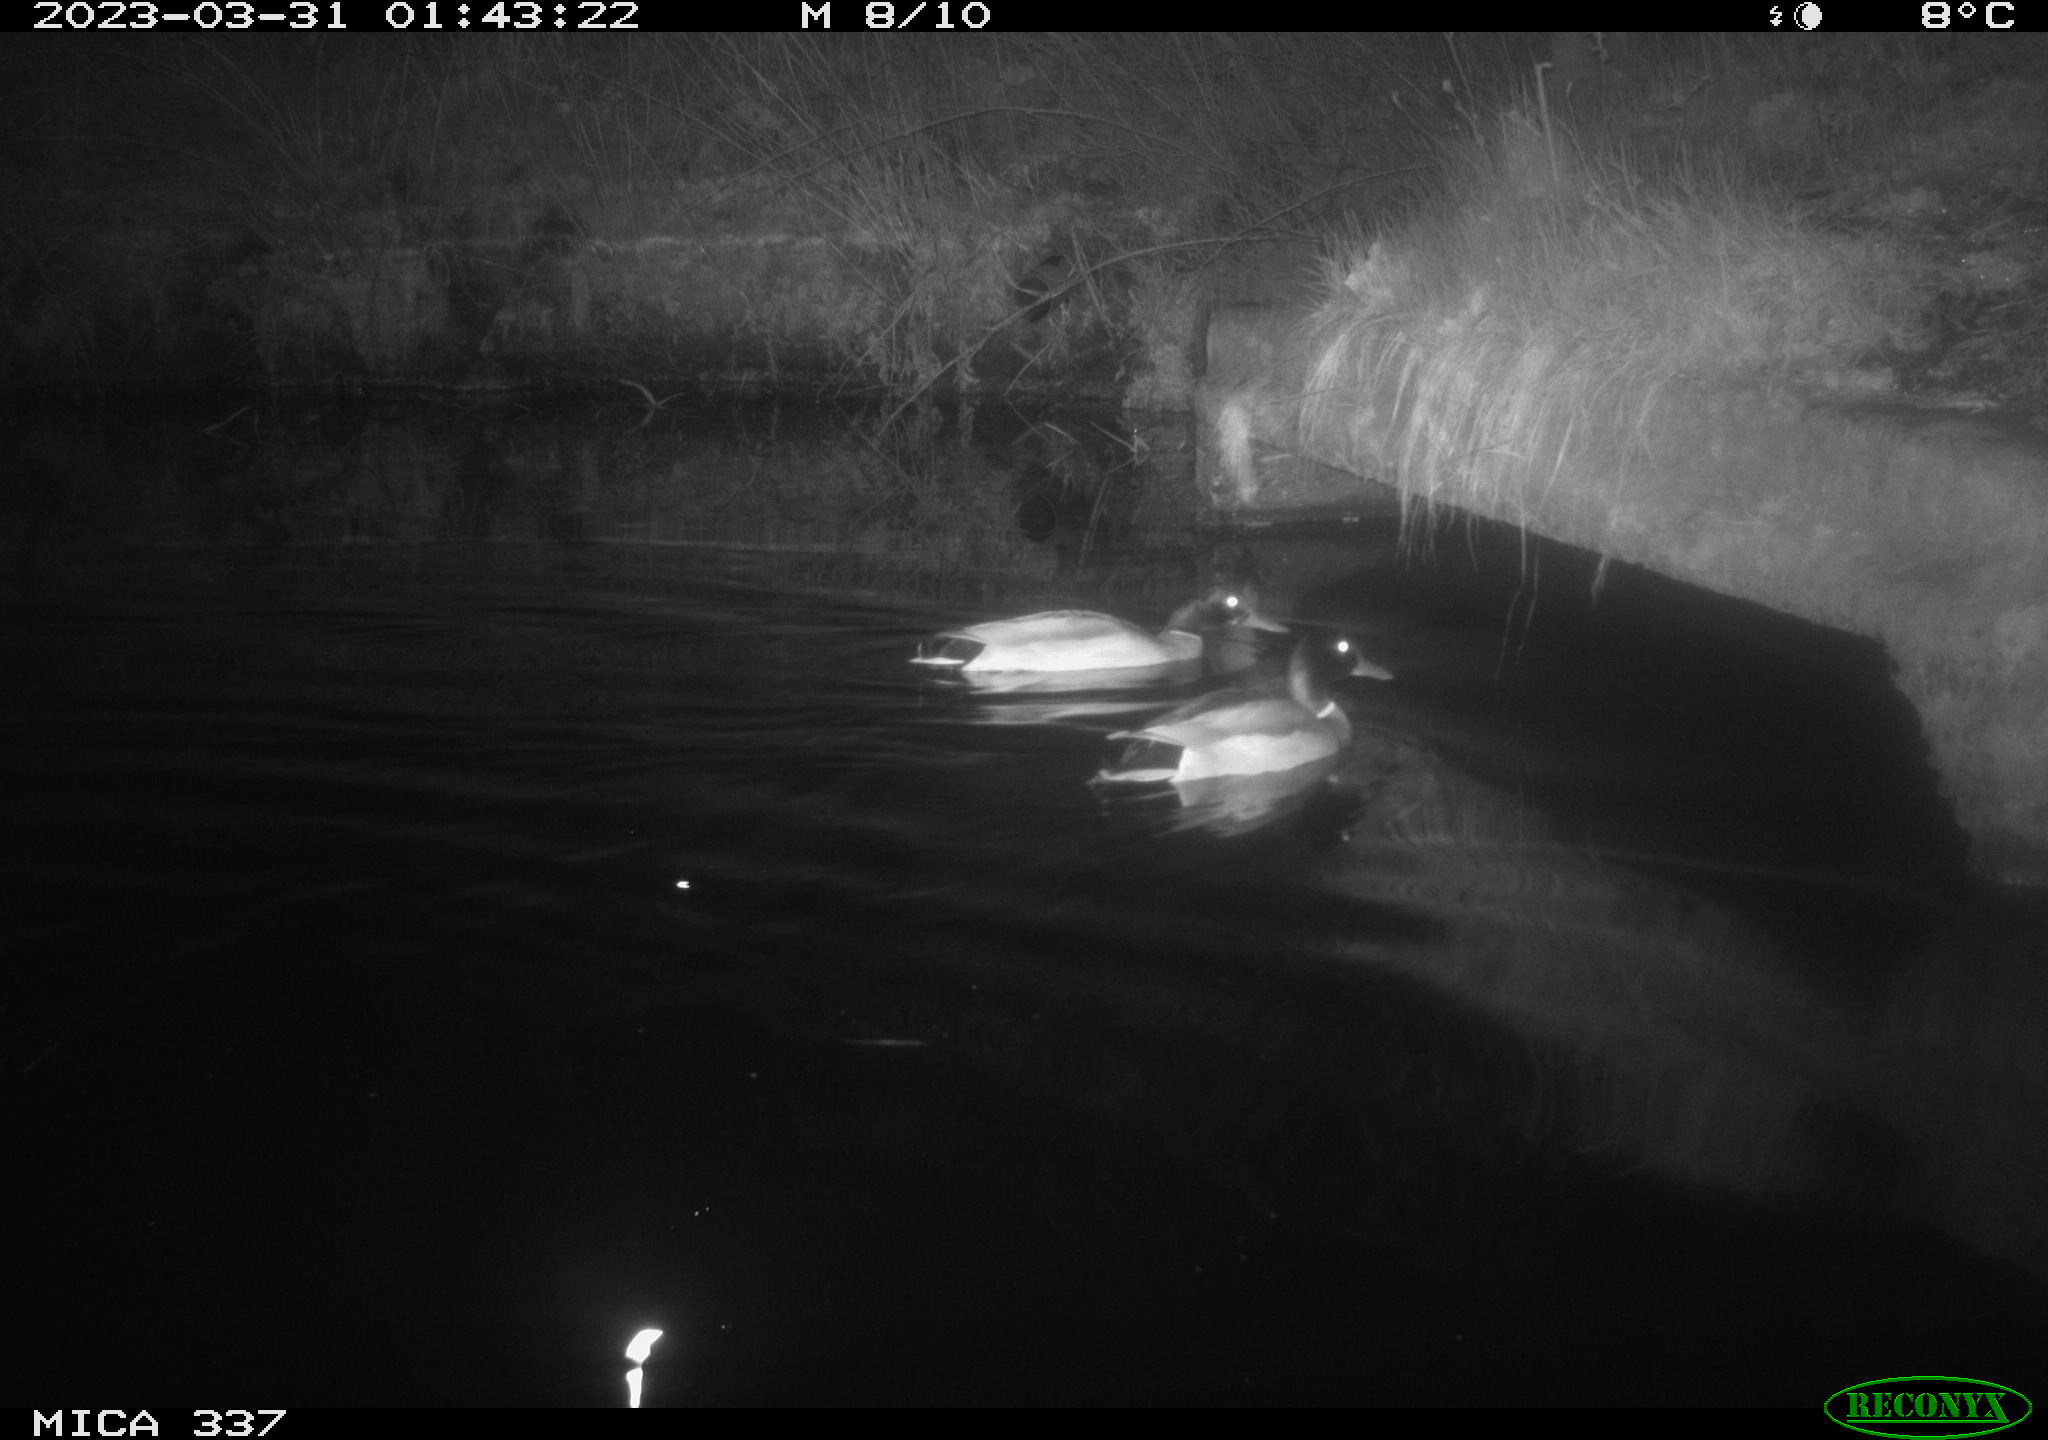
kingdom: Animalia
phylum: Chordata
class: Aves
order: Anseriformes
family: Anatidae
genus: Anas
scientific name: Anas
